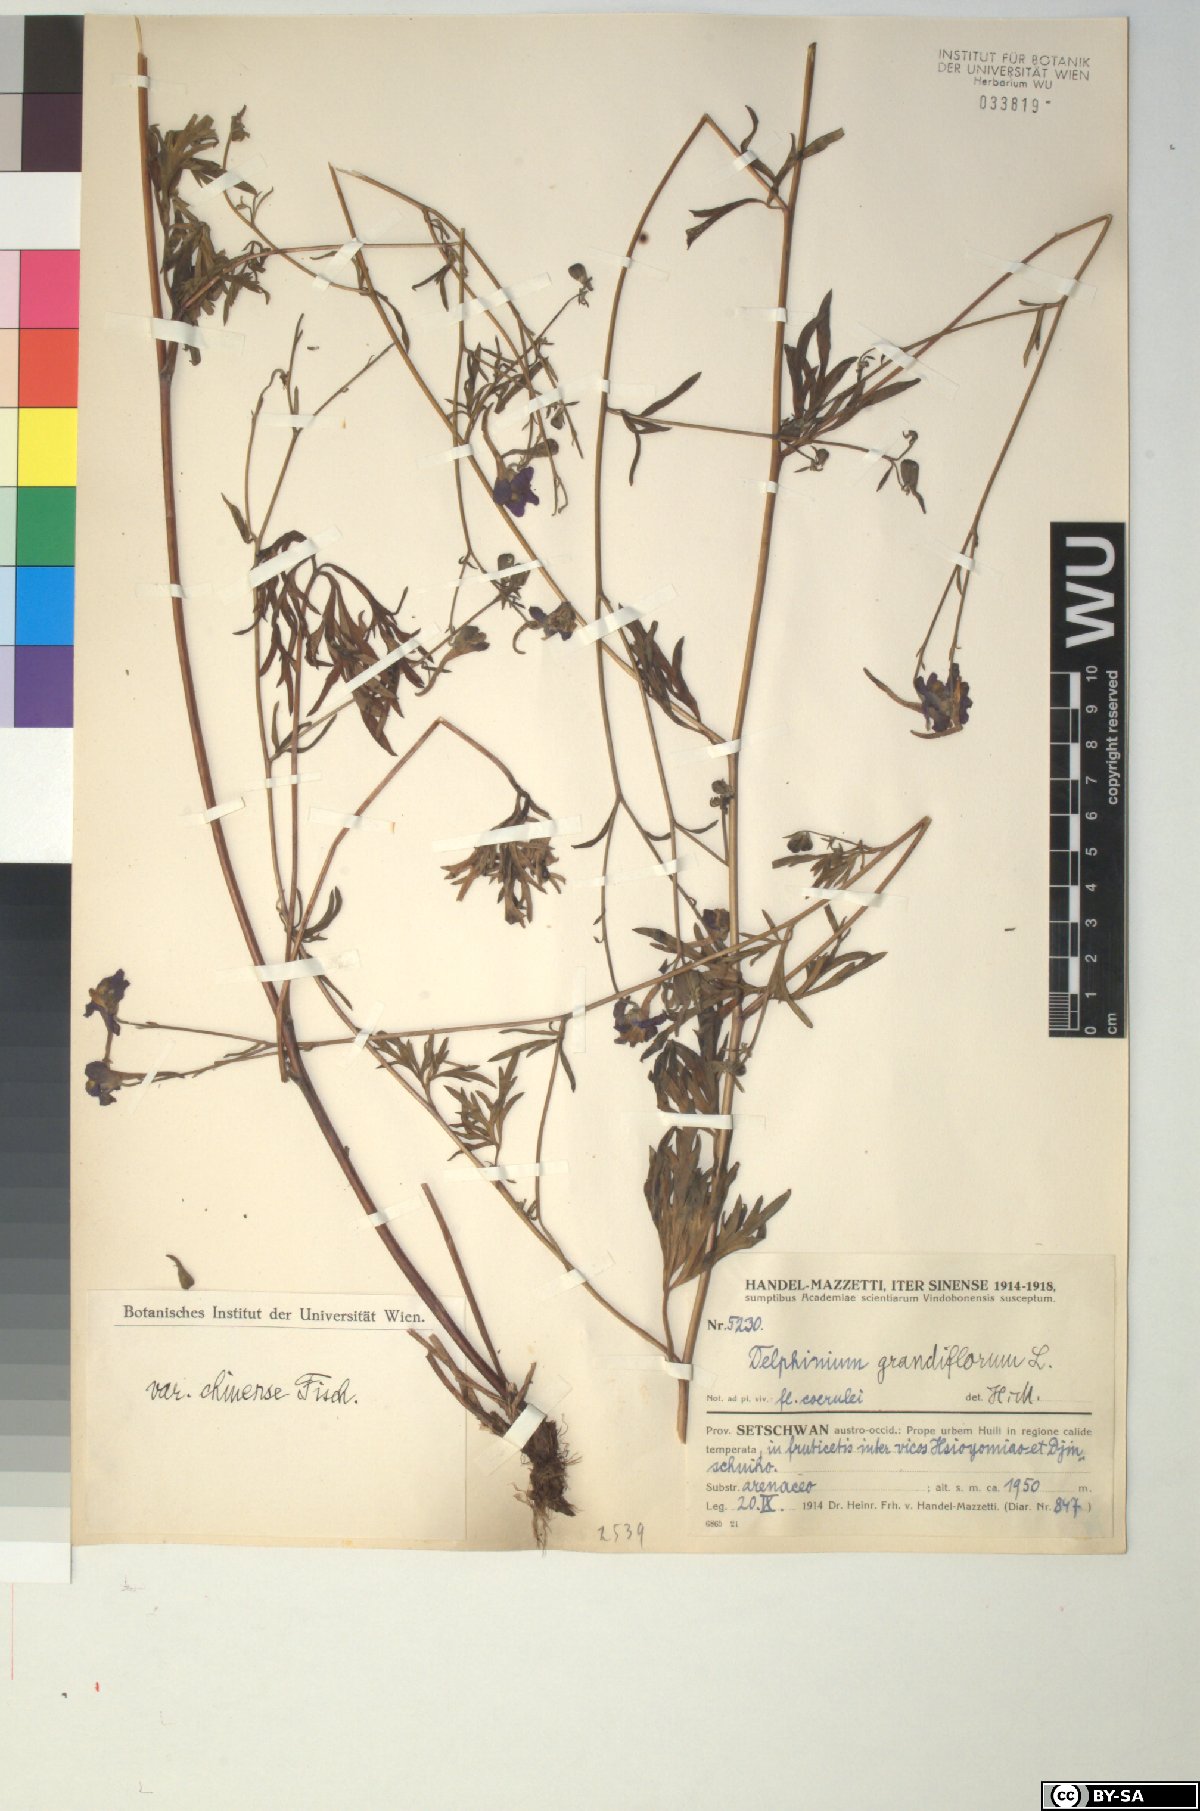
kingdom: Plantae
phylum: Tracheophyta
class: Magnoliopsida
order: Ranunculales
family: Ranunculaceae
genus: Delphinium
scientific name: Delphinium grandiflorum
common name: Siberian larkspur
